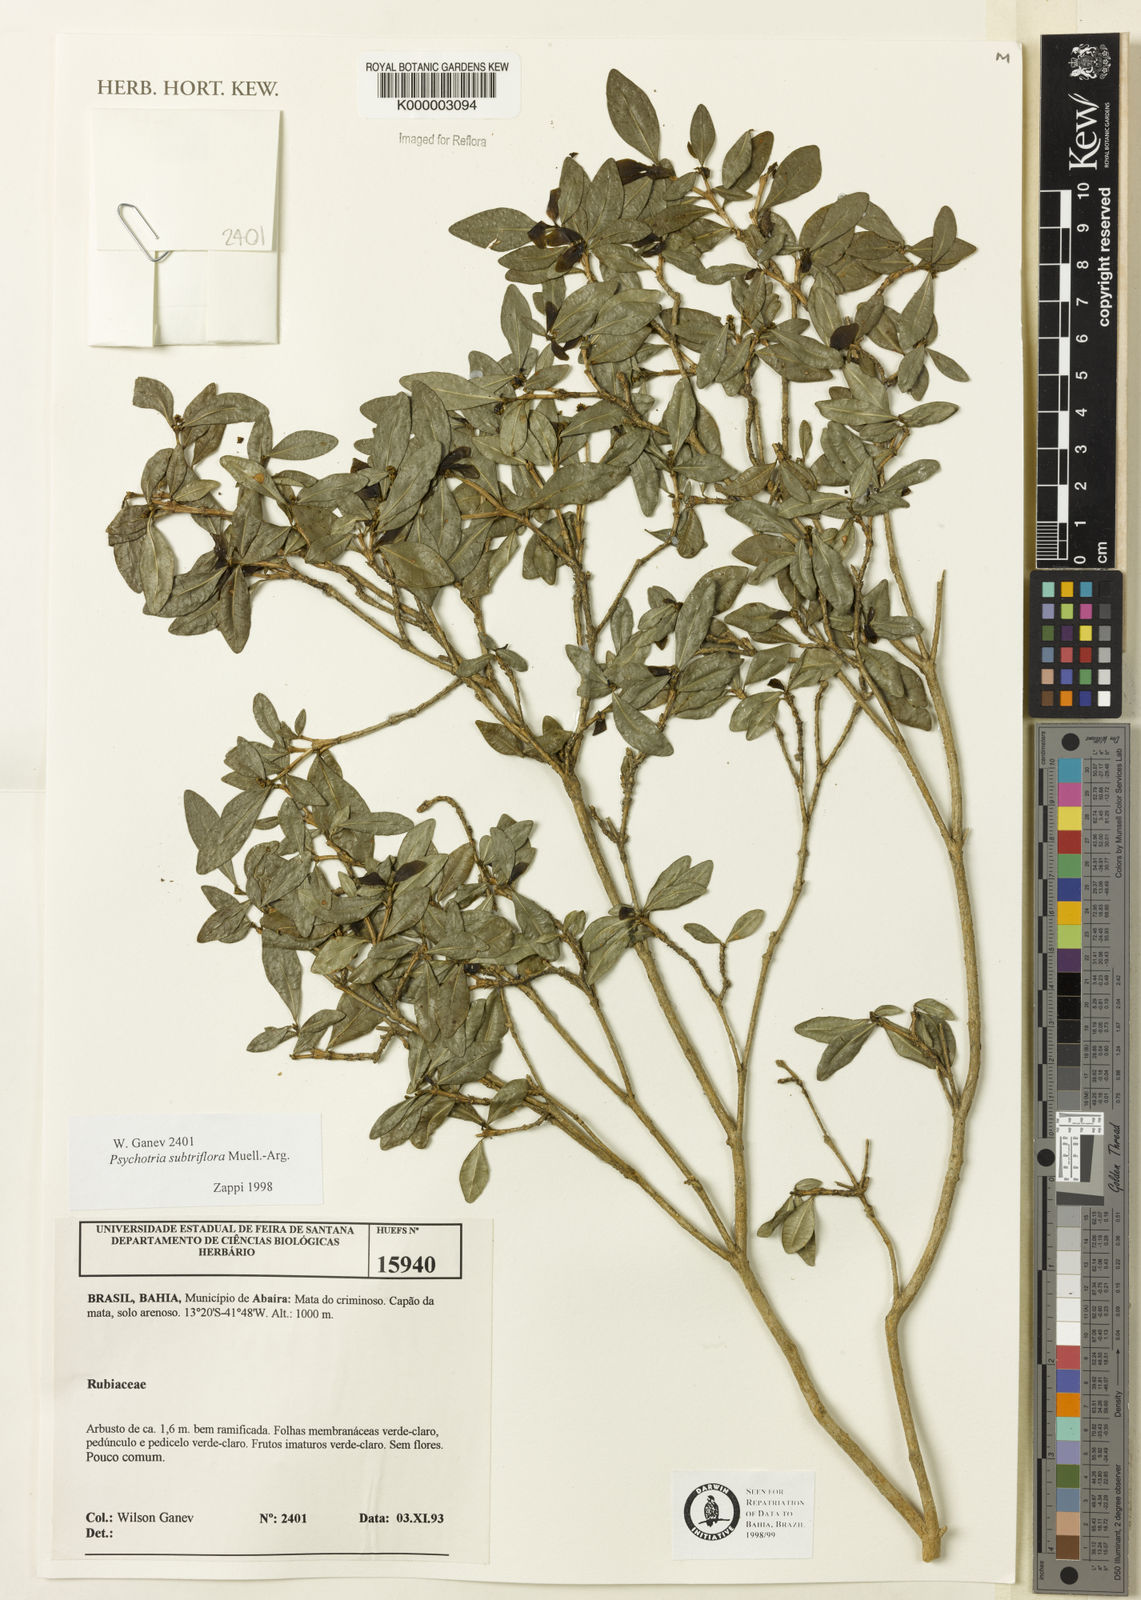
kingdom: Plantae
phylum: Tracheophyta
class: Magnoliopsida
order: Gentianales
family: Rubiaceae
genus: Psychotria
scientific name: Psychotria subtriflora
